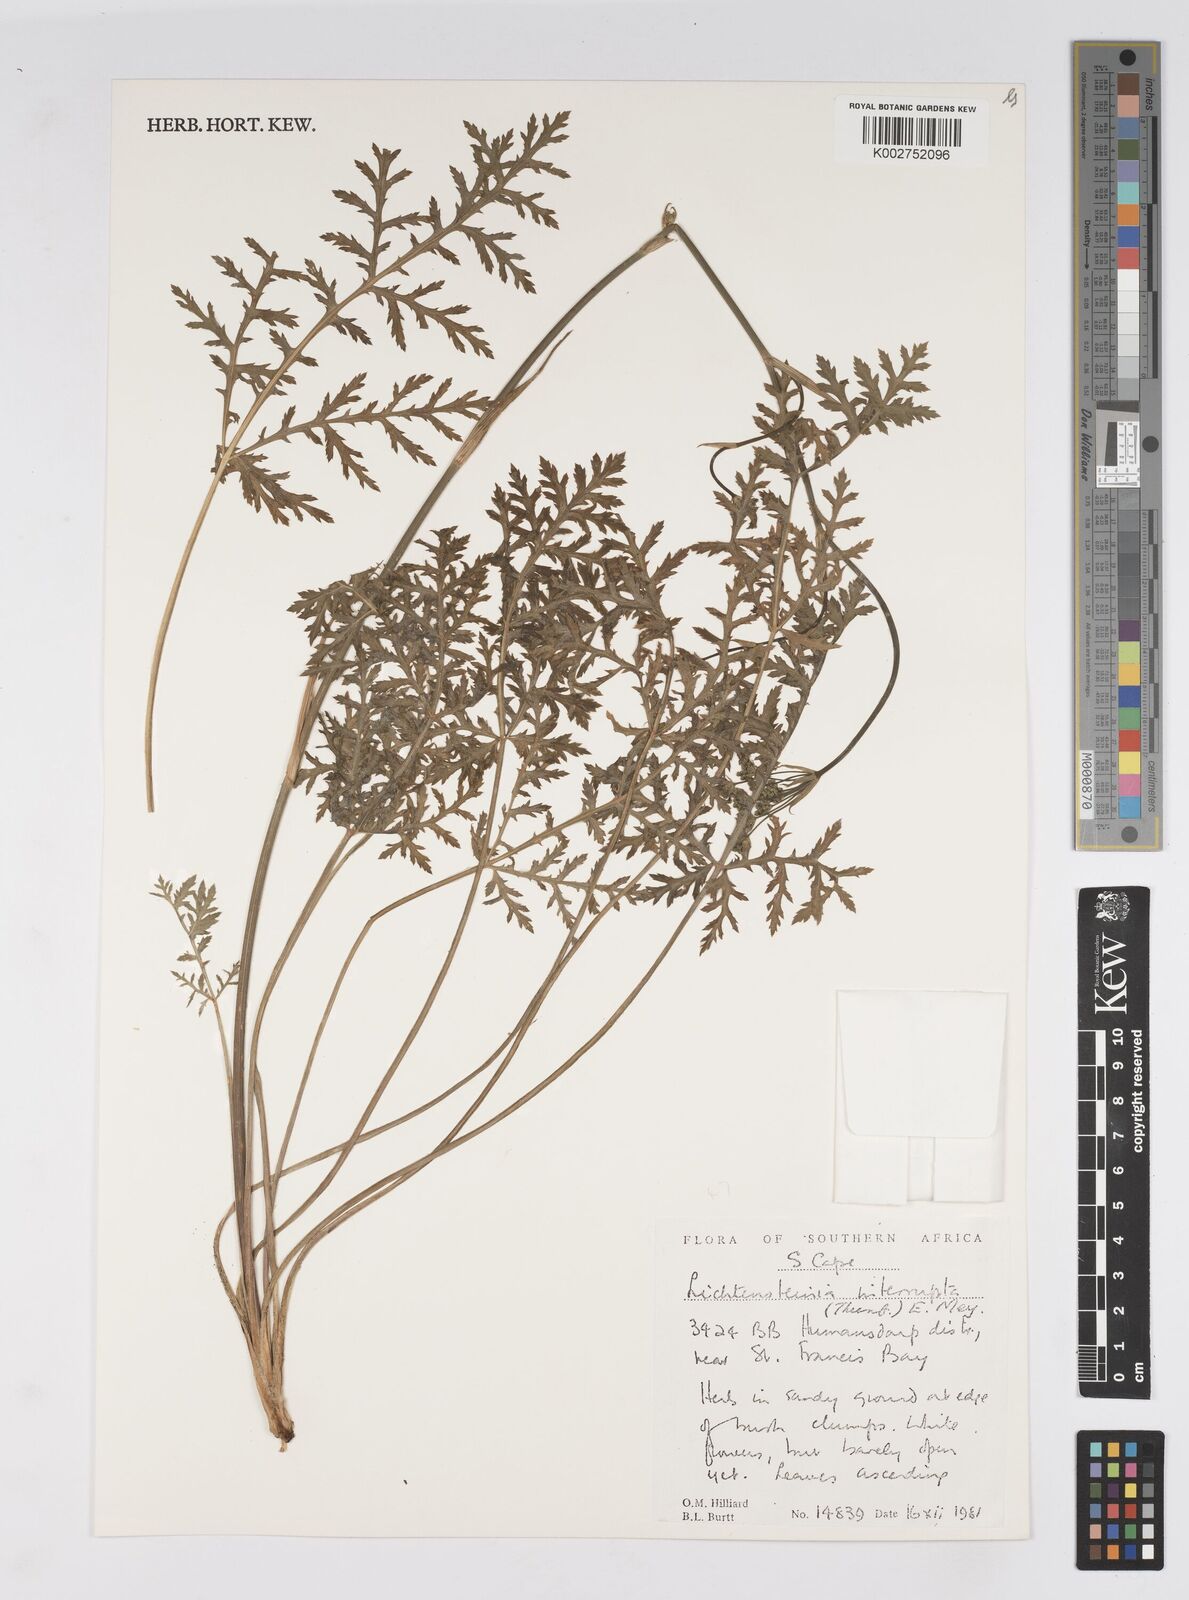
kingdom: Plantae
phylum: Tracheophyta
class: Magnoliopsida
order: Apiales
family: Apiaceae
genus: Lichtensteinia
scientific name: Lichtensteinia interrupta
